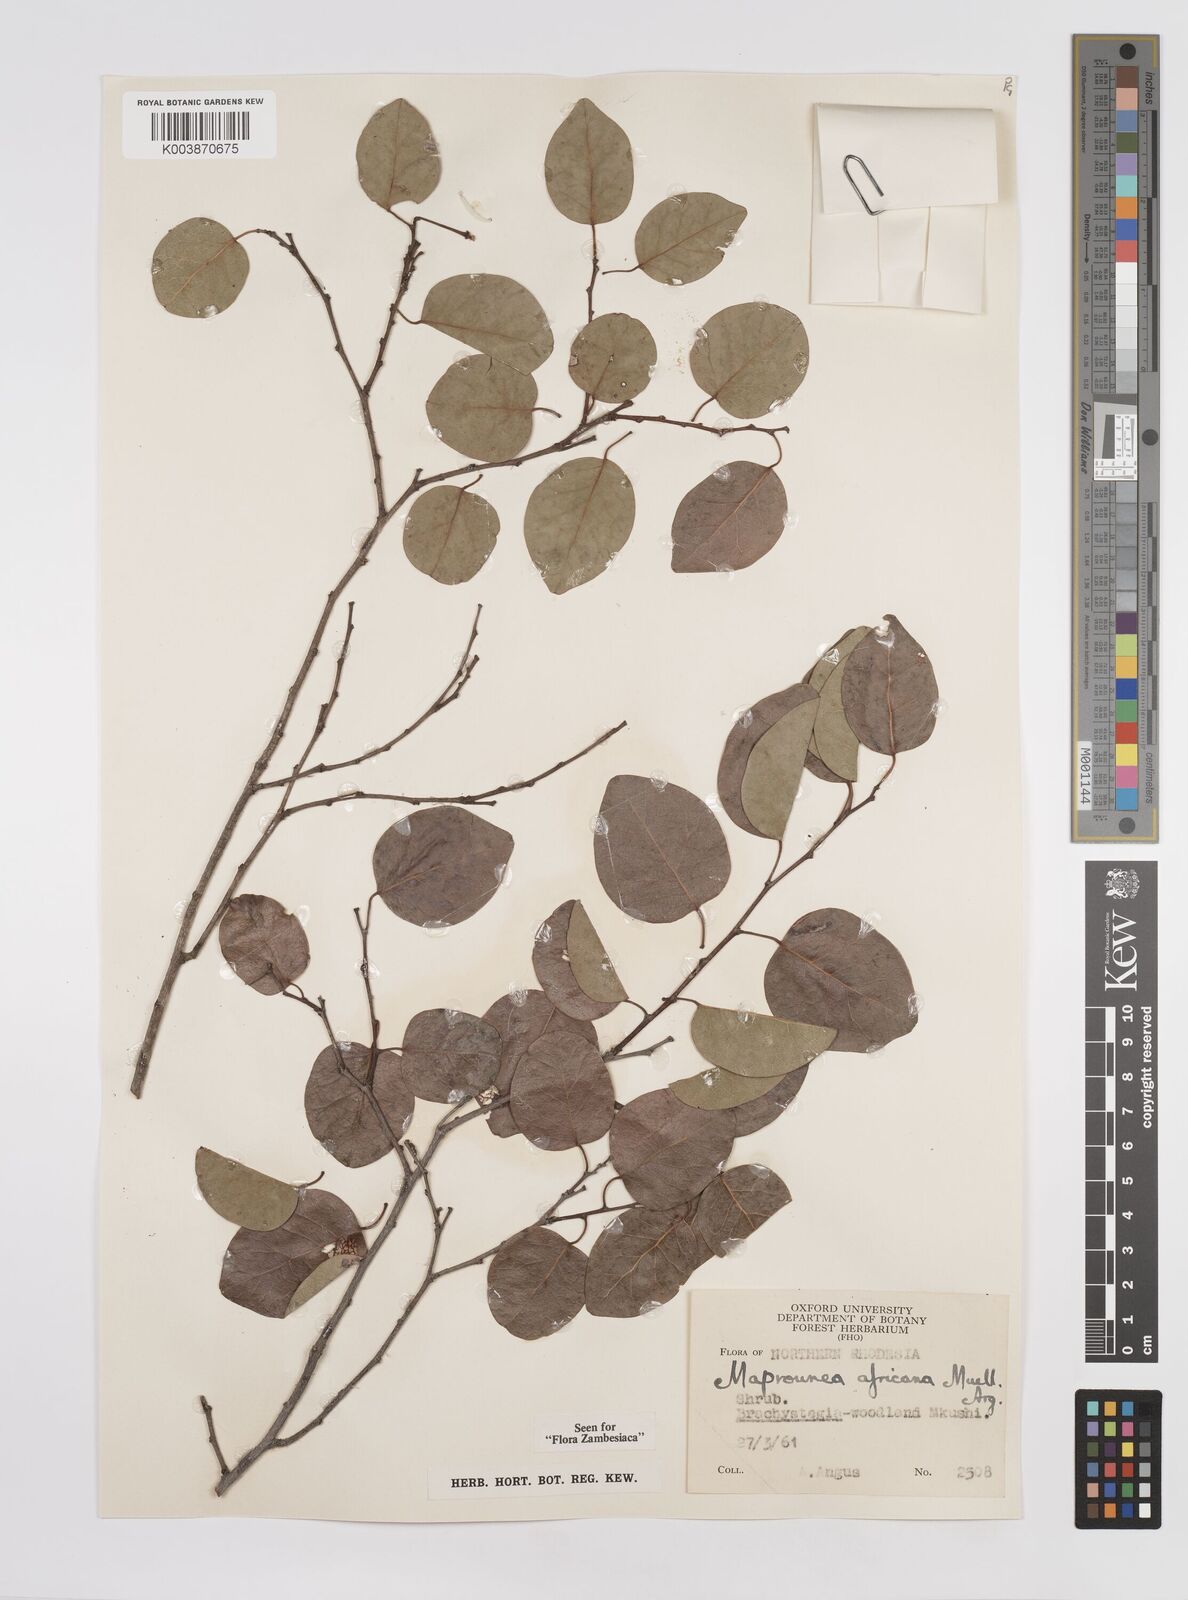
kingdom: Plantae
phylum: Tracheophyta
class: Magnoliopsida
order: Malpighiales
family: Euphorbiaceae
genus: Maprounea
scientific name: Maprounea africana
